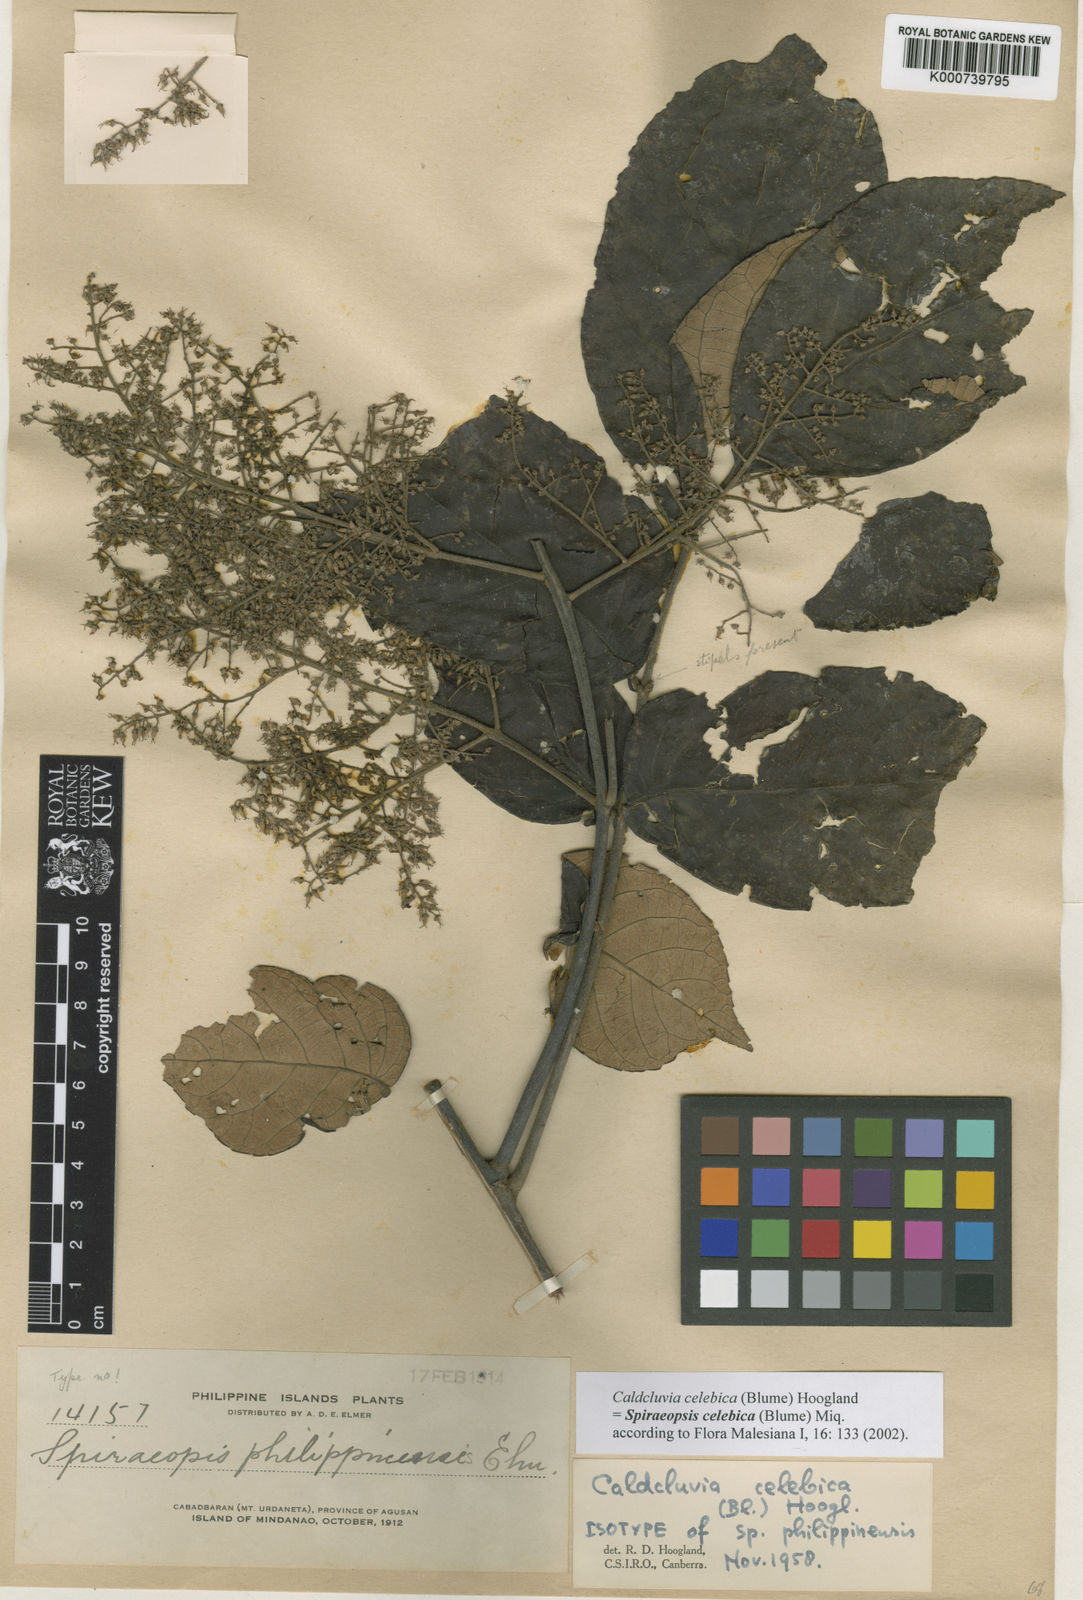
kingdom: Plantae
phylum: Tracheophyta
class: Magnoliopsida
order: Oxalidales
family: Cunoniaceae
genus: Ackama
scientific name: Ackama celebica
